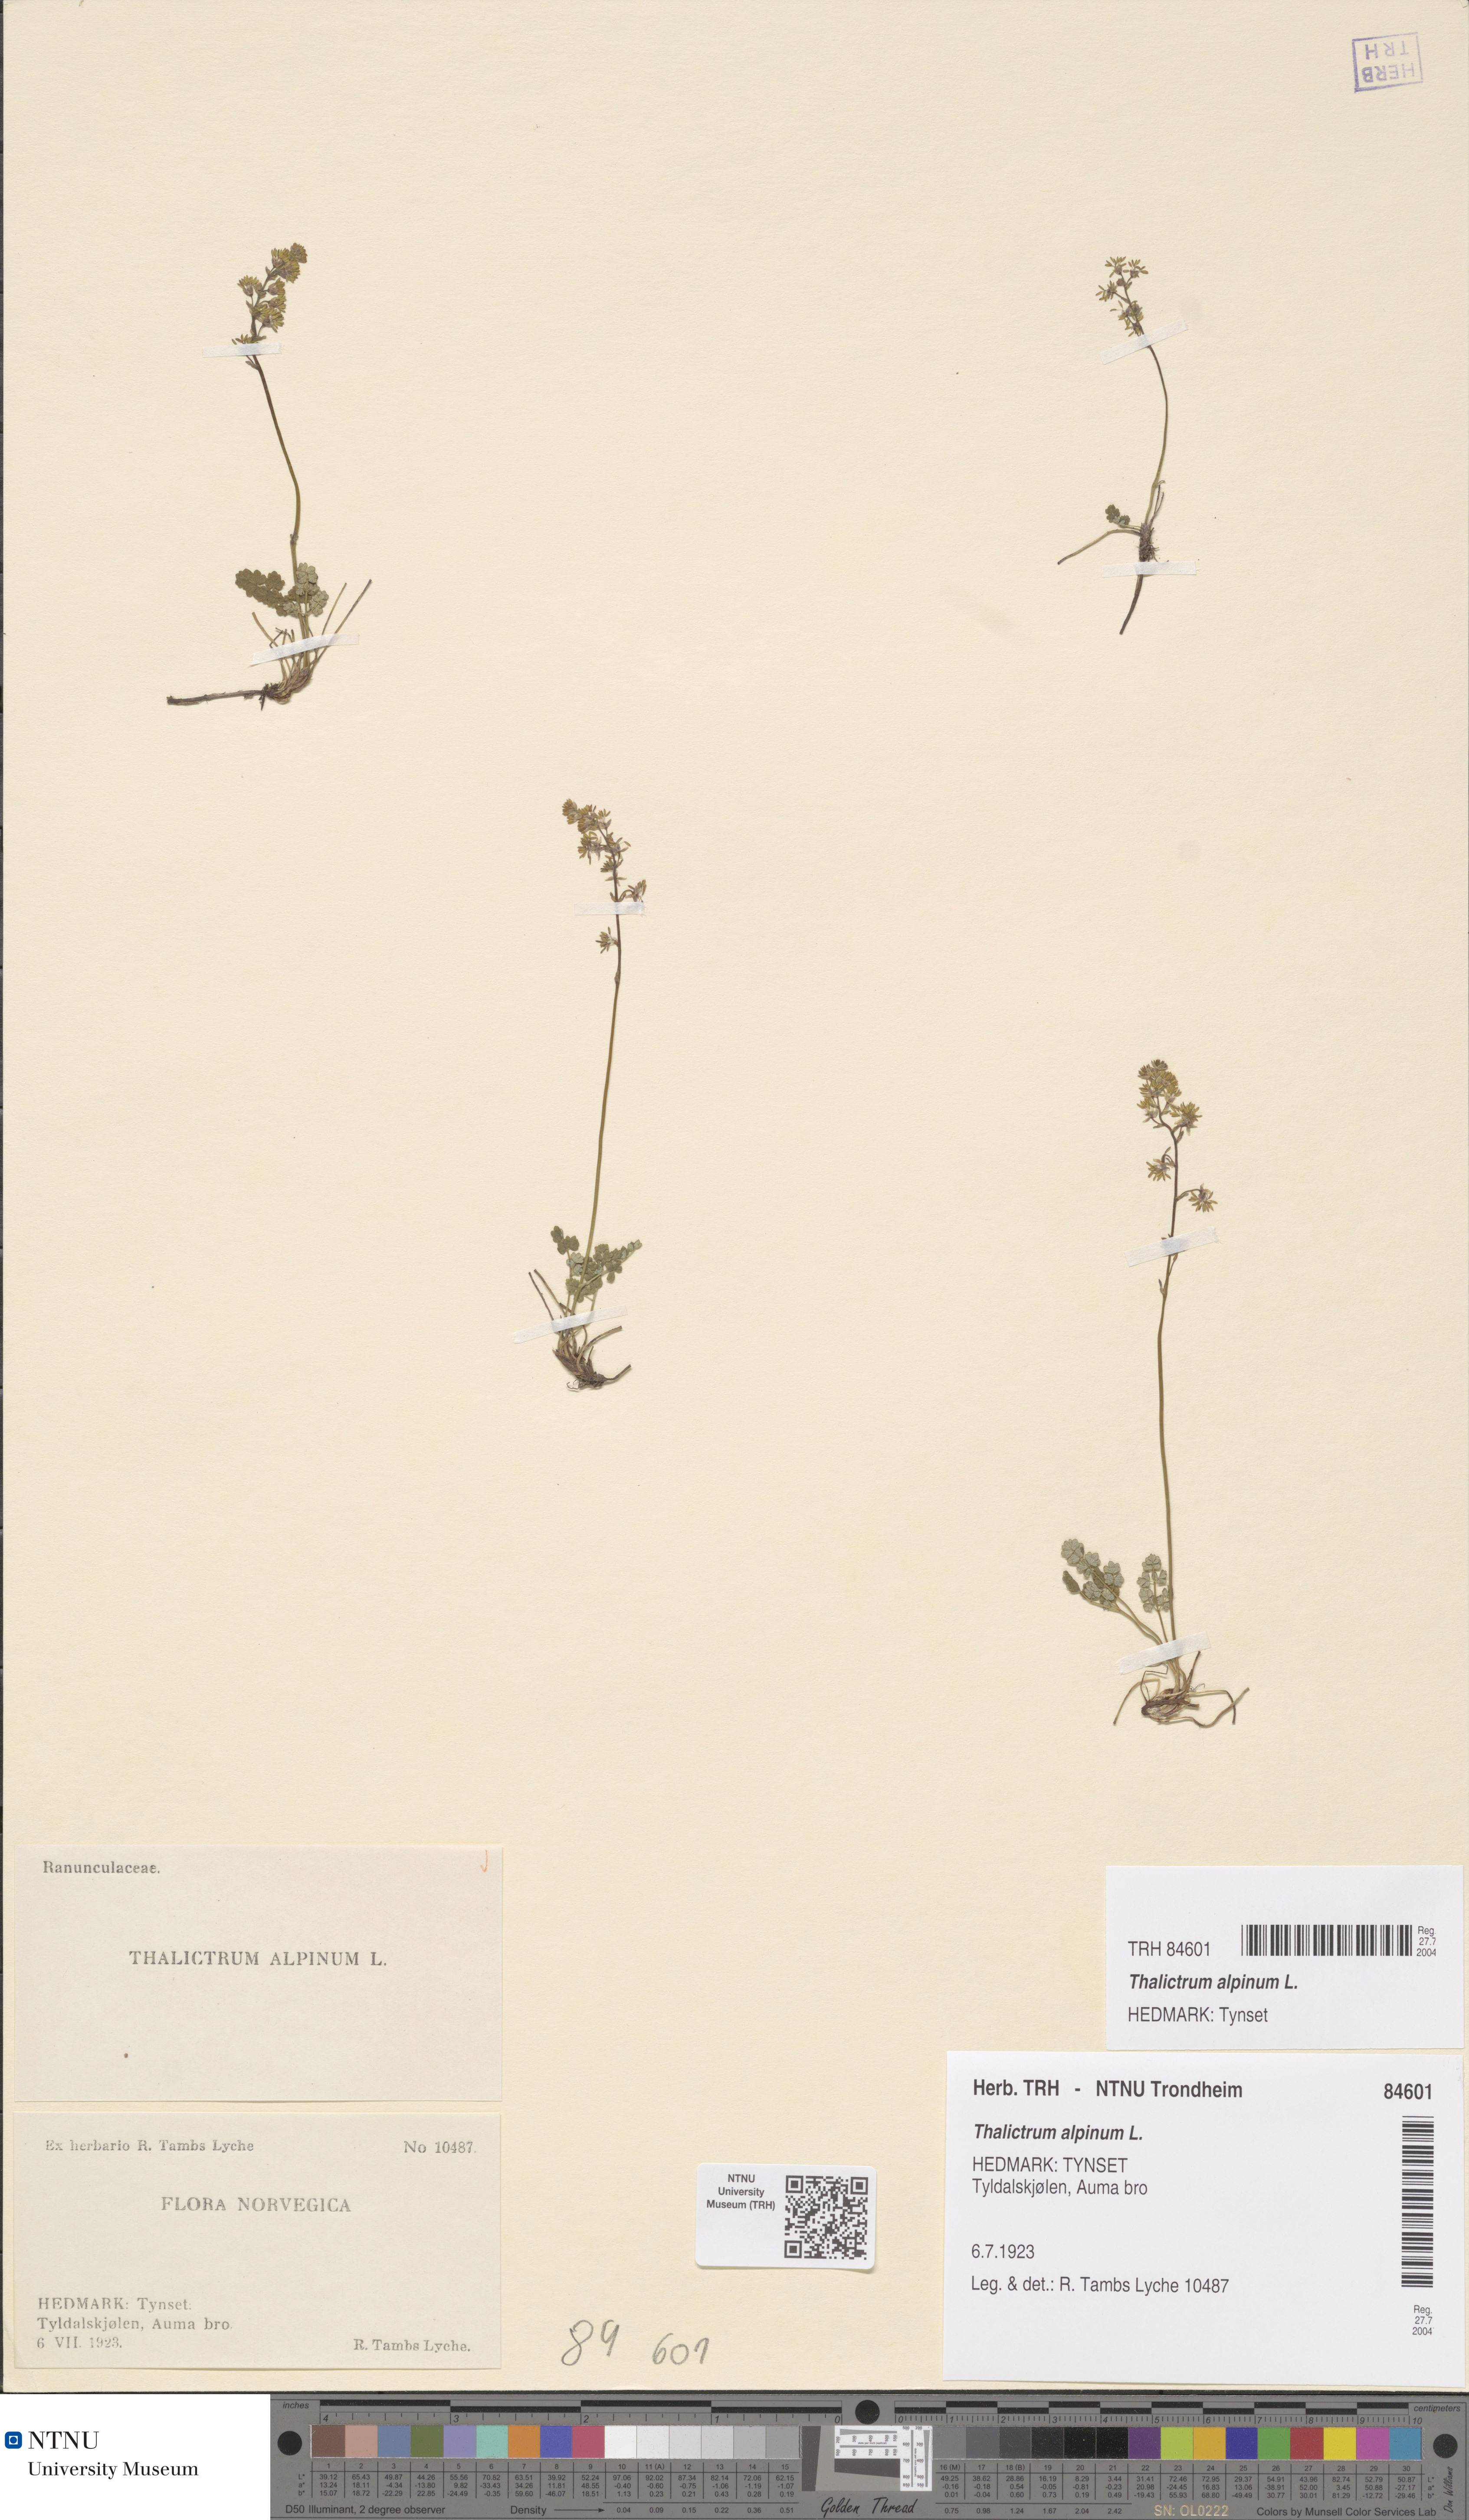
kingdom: Plantae
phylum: Tracheophyta
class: Magnoliopsida
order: Ranunculales
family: Ranunculaceae
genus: Thalictrum
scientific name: Thalictrum alpinum
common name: Alpine meadow-rue
